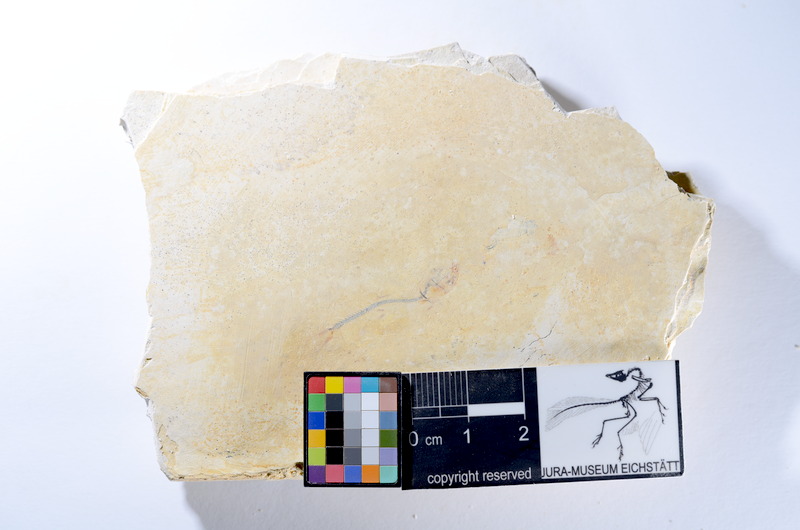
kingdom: Animalia
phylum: Chordata
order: Salmoniformes
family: Orthogonikleithridae
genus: Orthogonikleithrus
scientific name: Orthogonikleithrus hoelli
